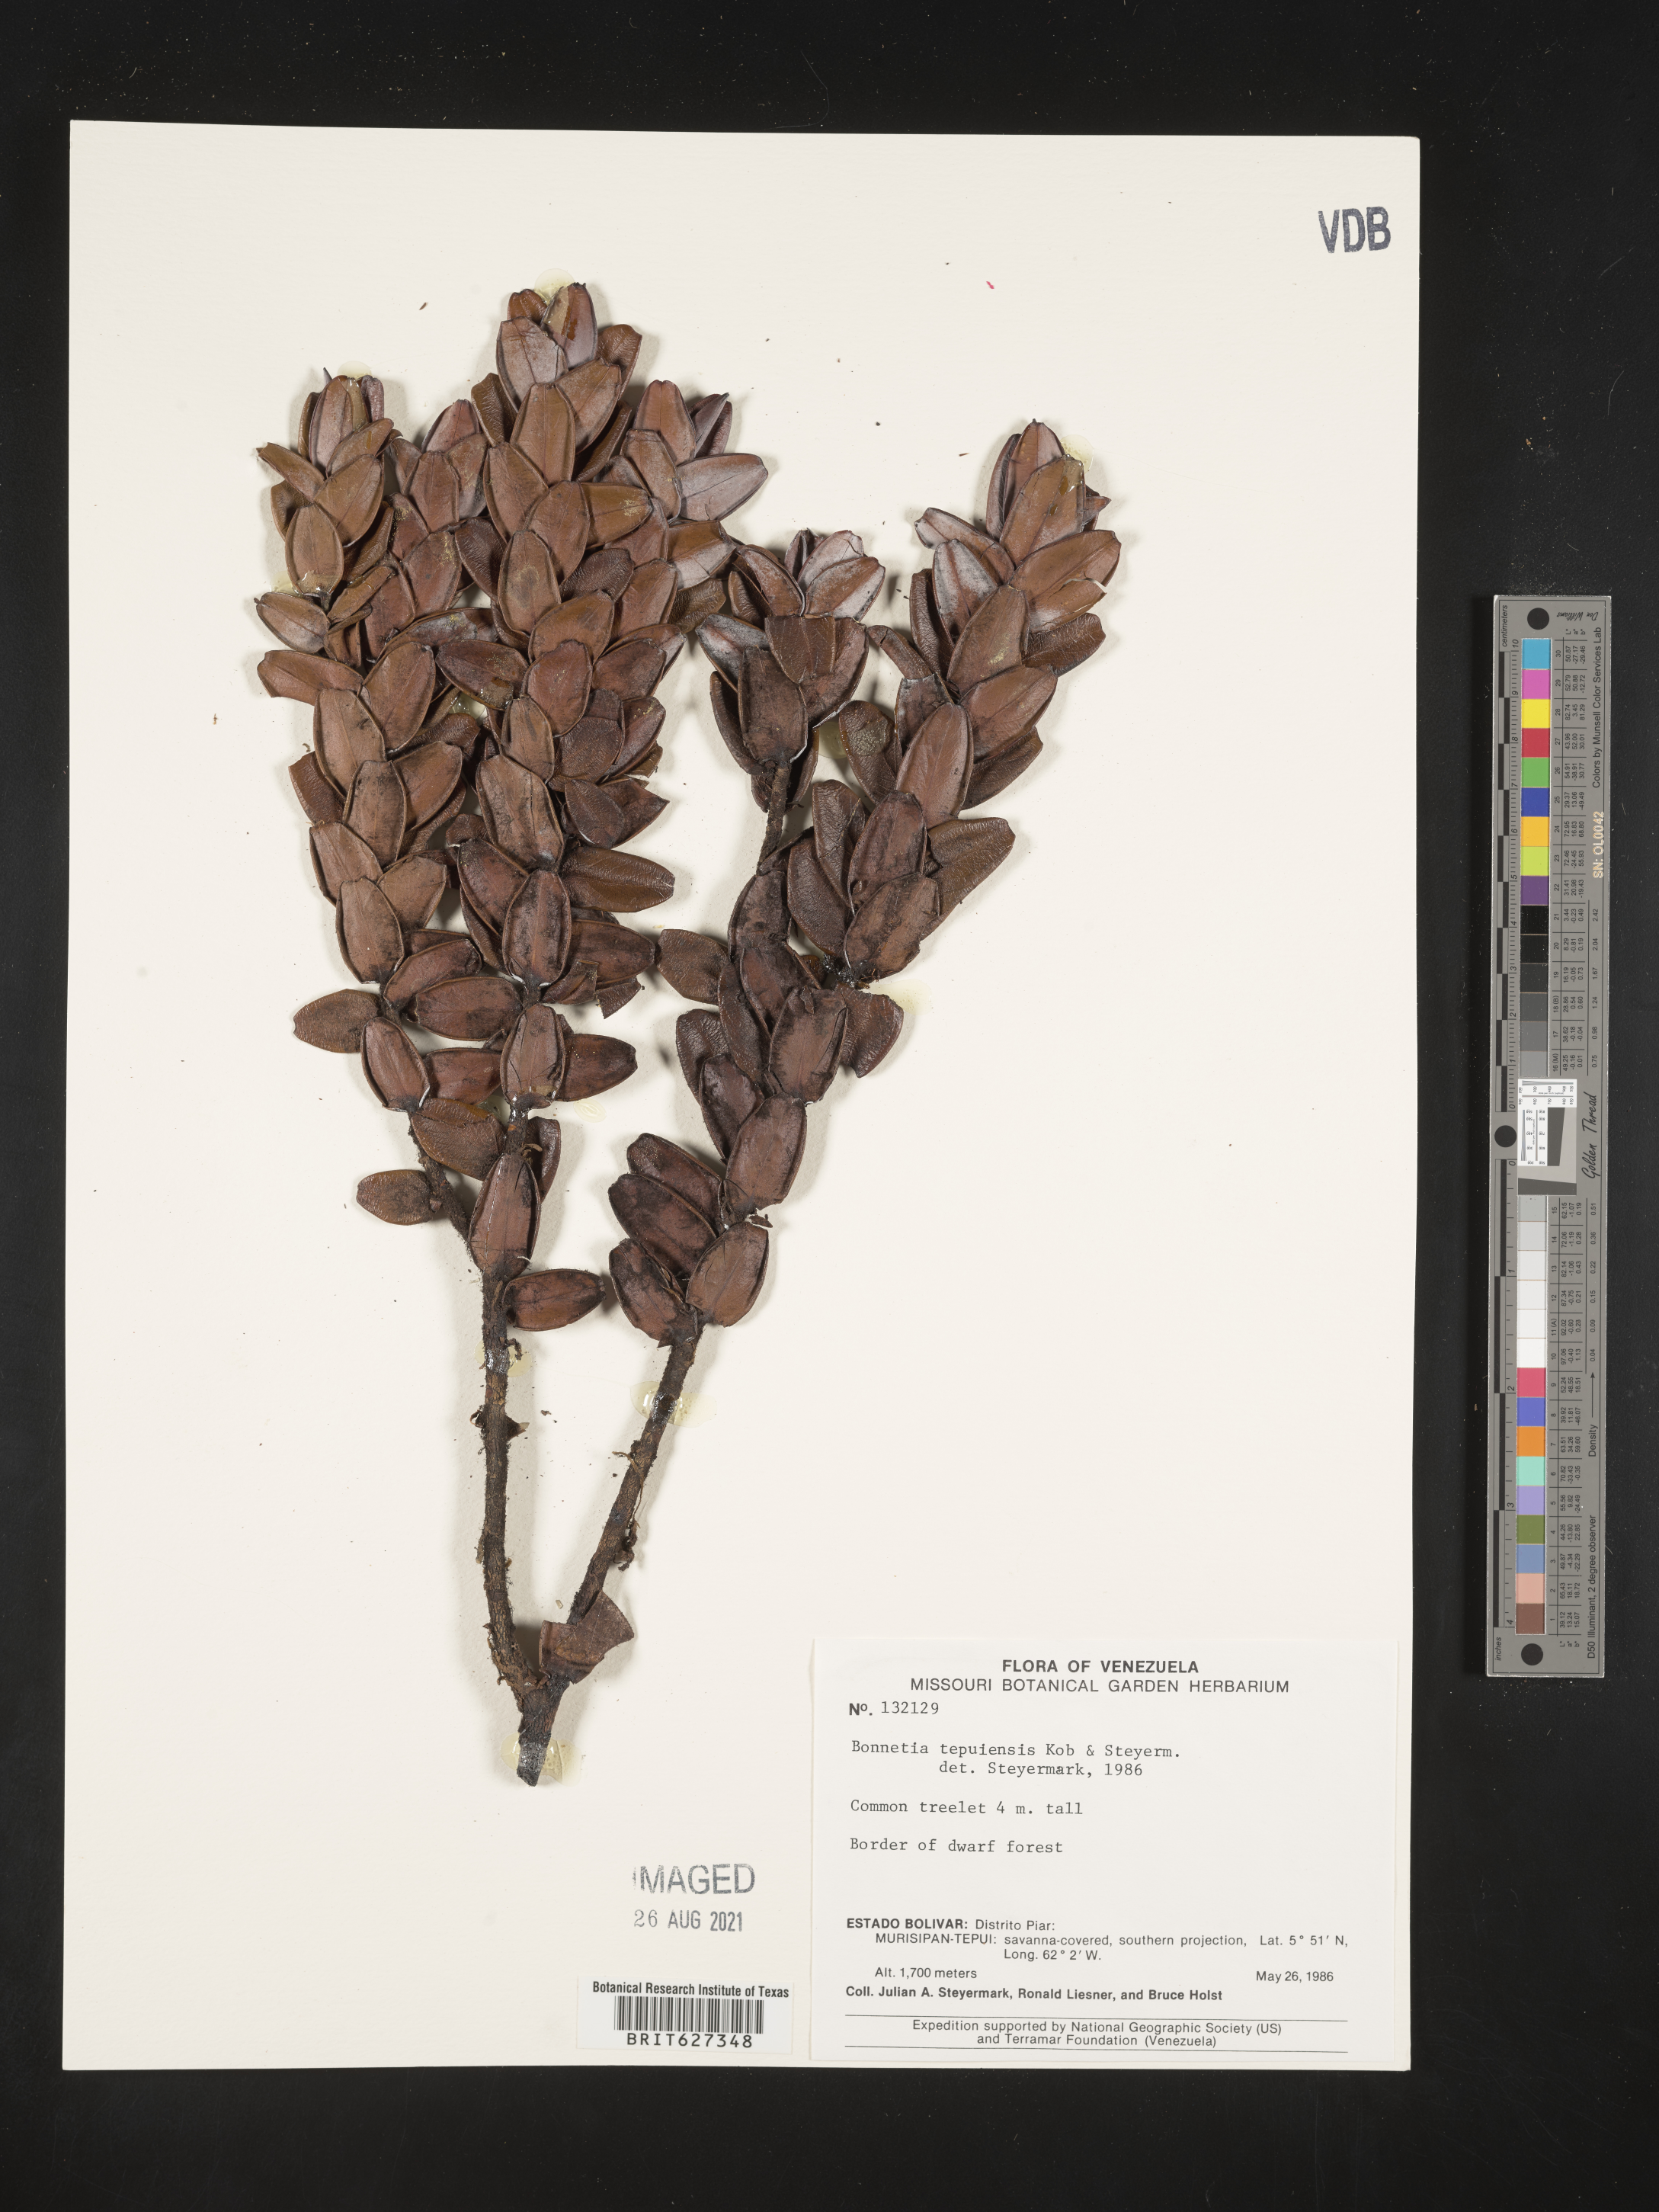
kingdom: Plantae
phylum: Tracheophyta
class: Magnoliopsida
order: Malpighiales
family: Bonnetiaceae
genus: Bonnetia
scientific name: Bonnetia tepuiensis
